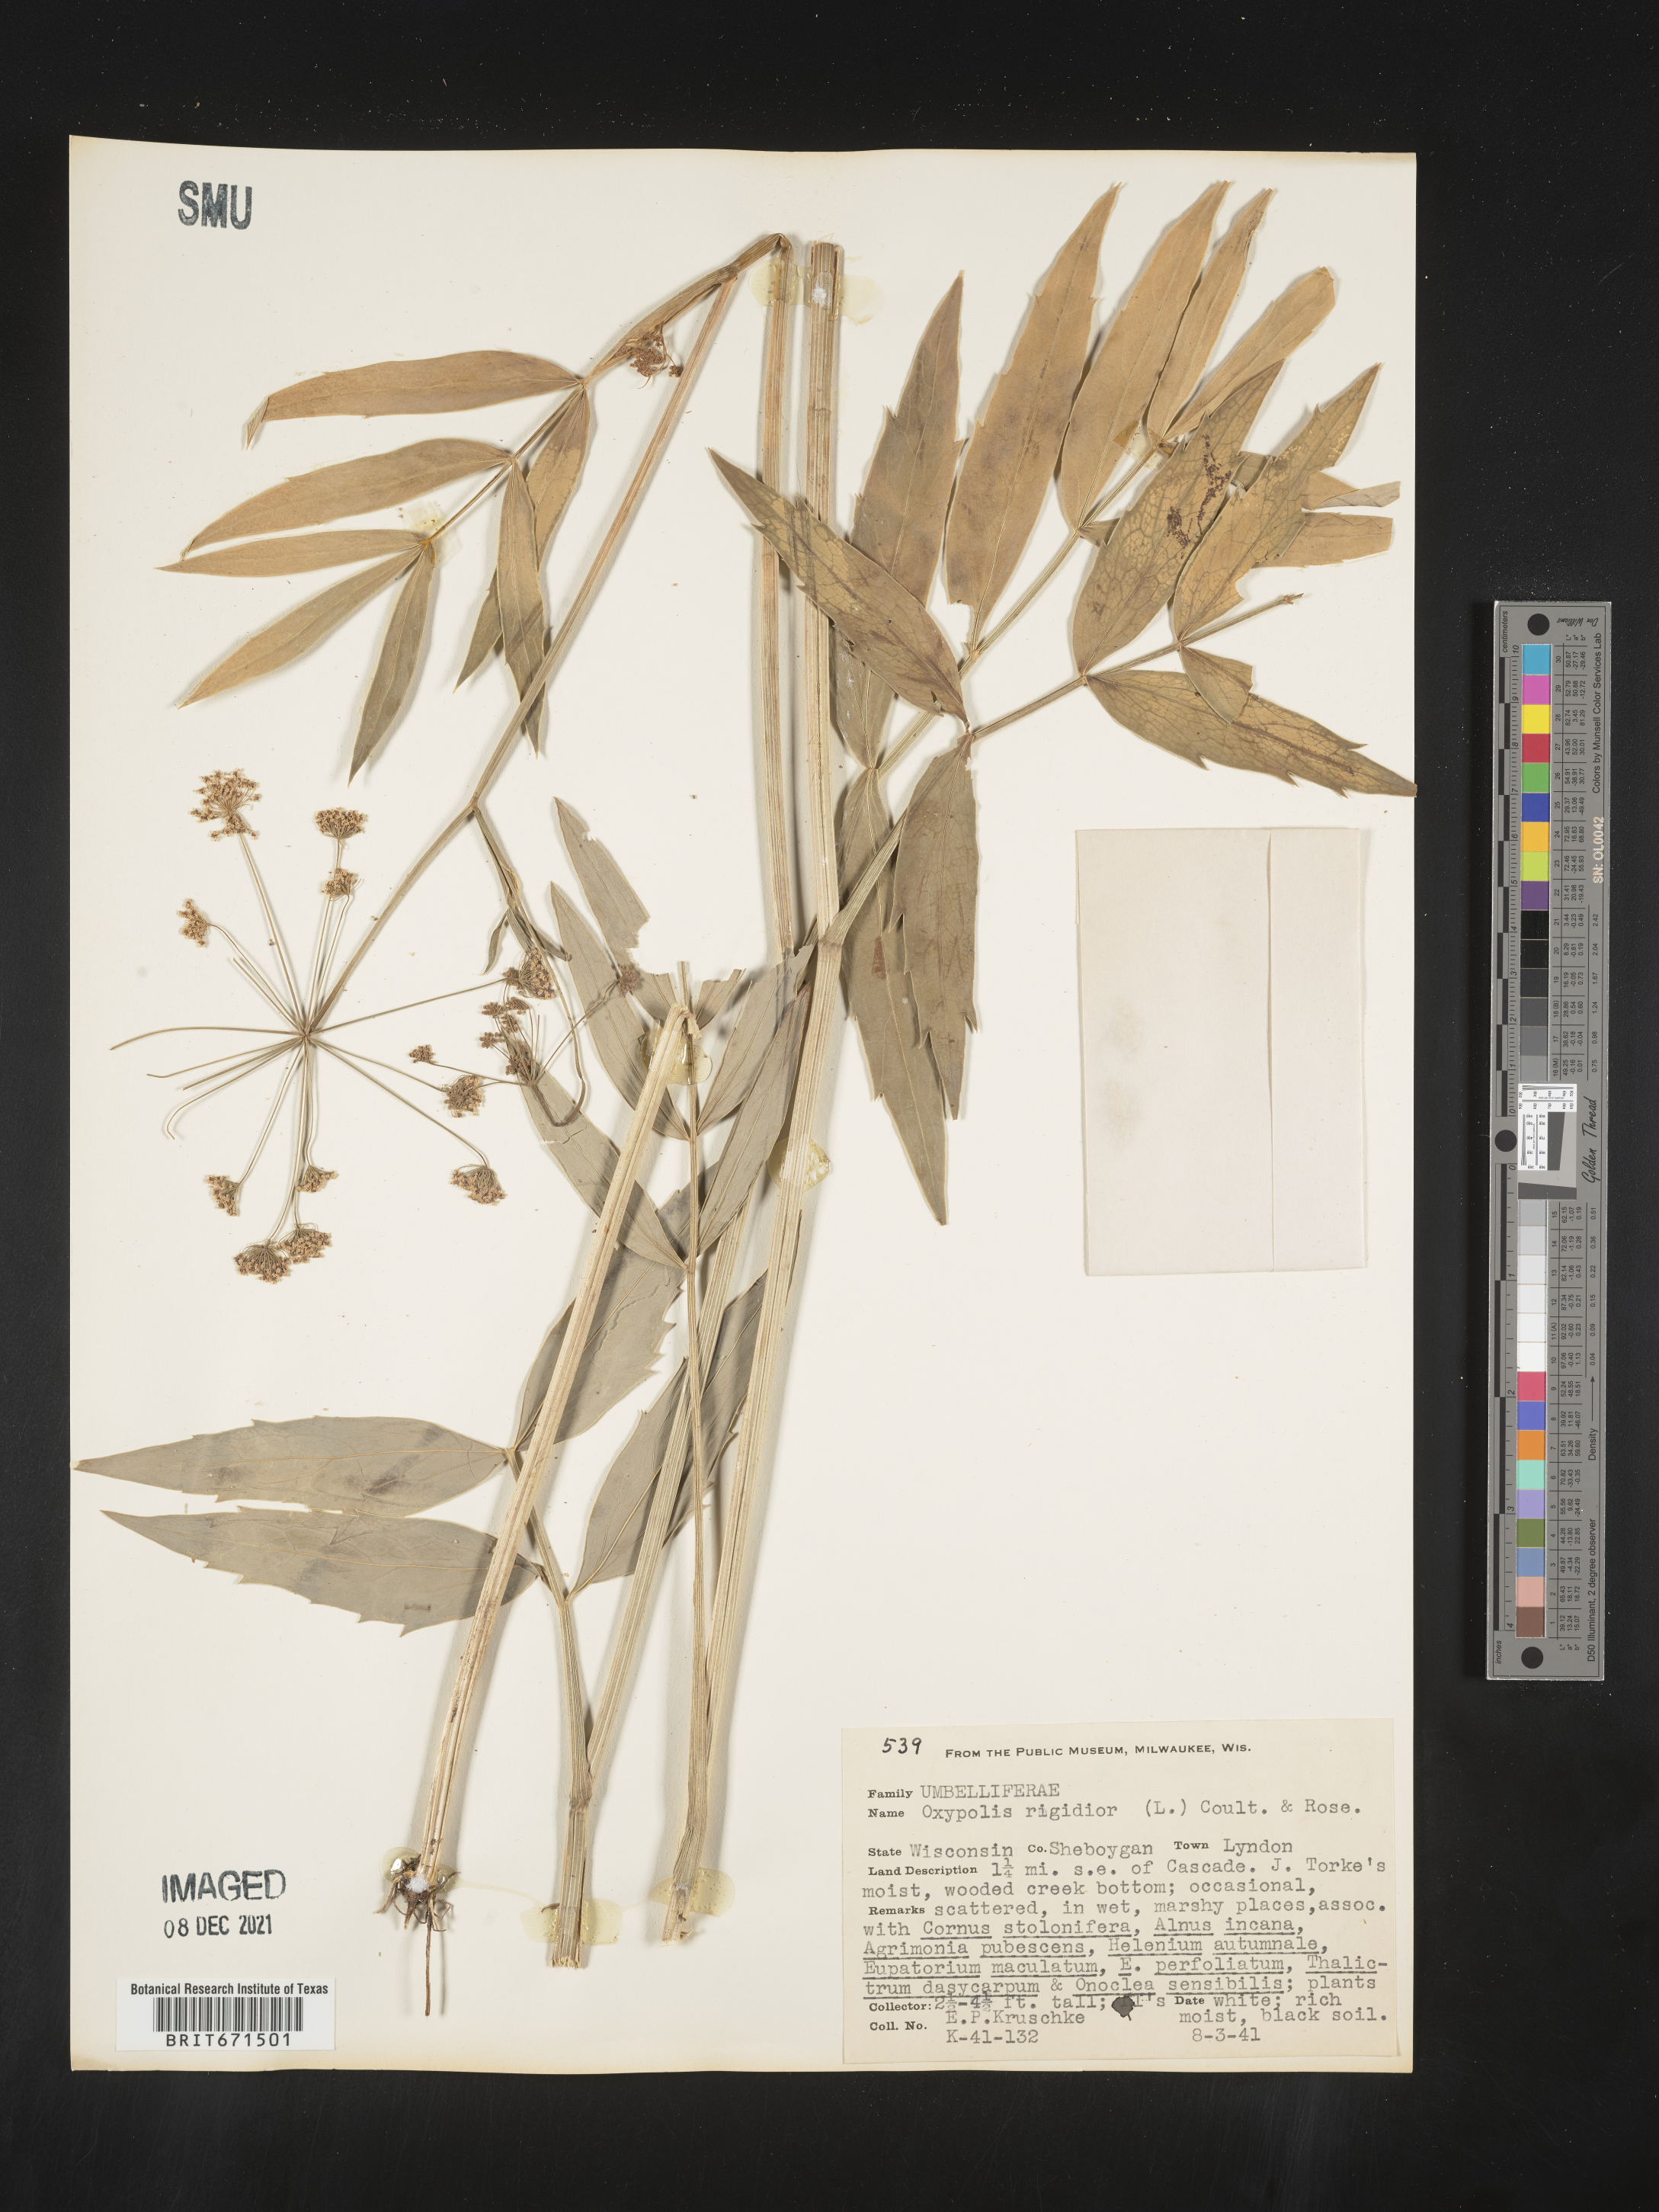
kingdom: Plantae
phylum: Tracheophyta
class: Magnoliopsida
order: Apiales
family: Apiaceae
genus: Oxypolis
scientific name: Oxypolis rigidior
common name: Cowbane
